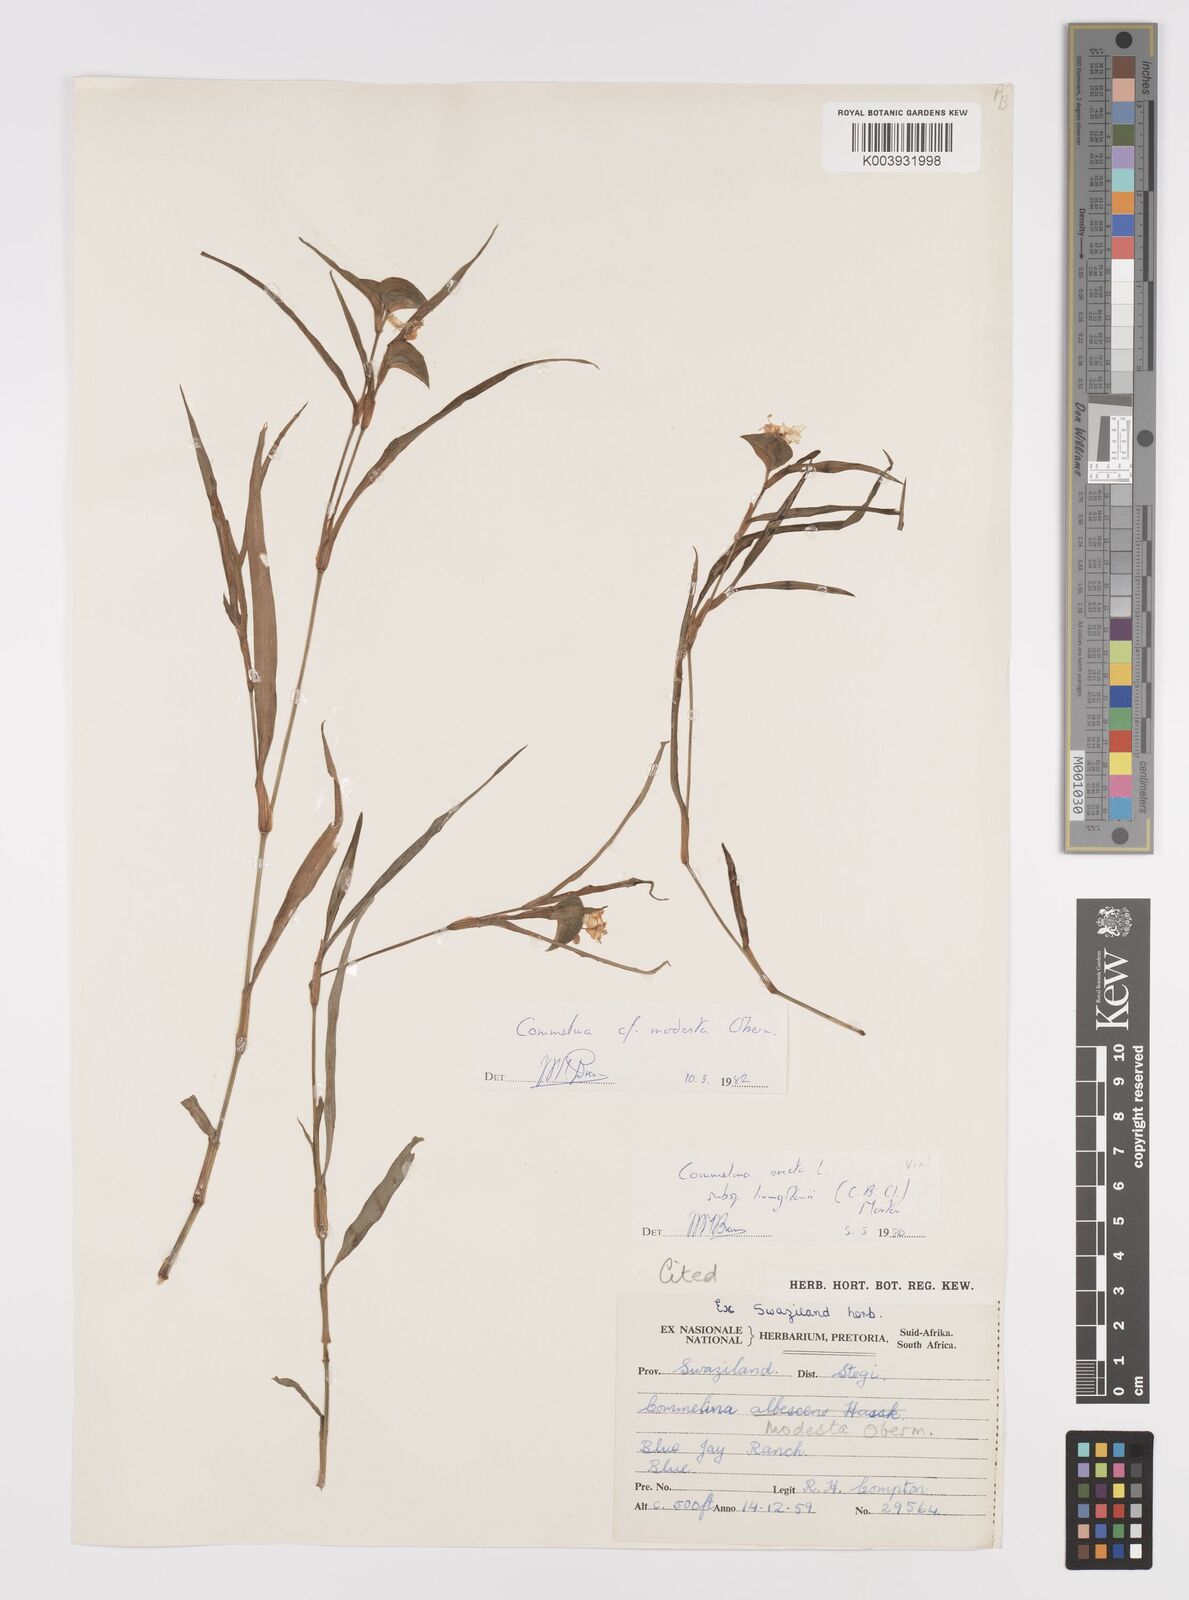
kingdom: Plantae
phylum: Tracheophyta
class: Liliopsida
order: Commelinales
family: Commelinaceae
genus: Commelina
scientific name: Commelina modesta
